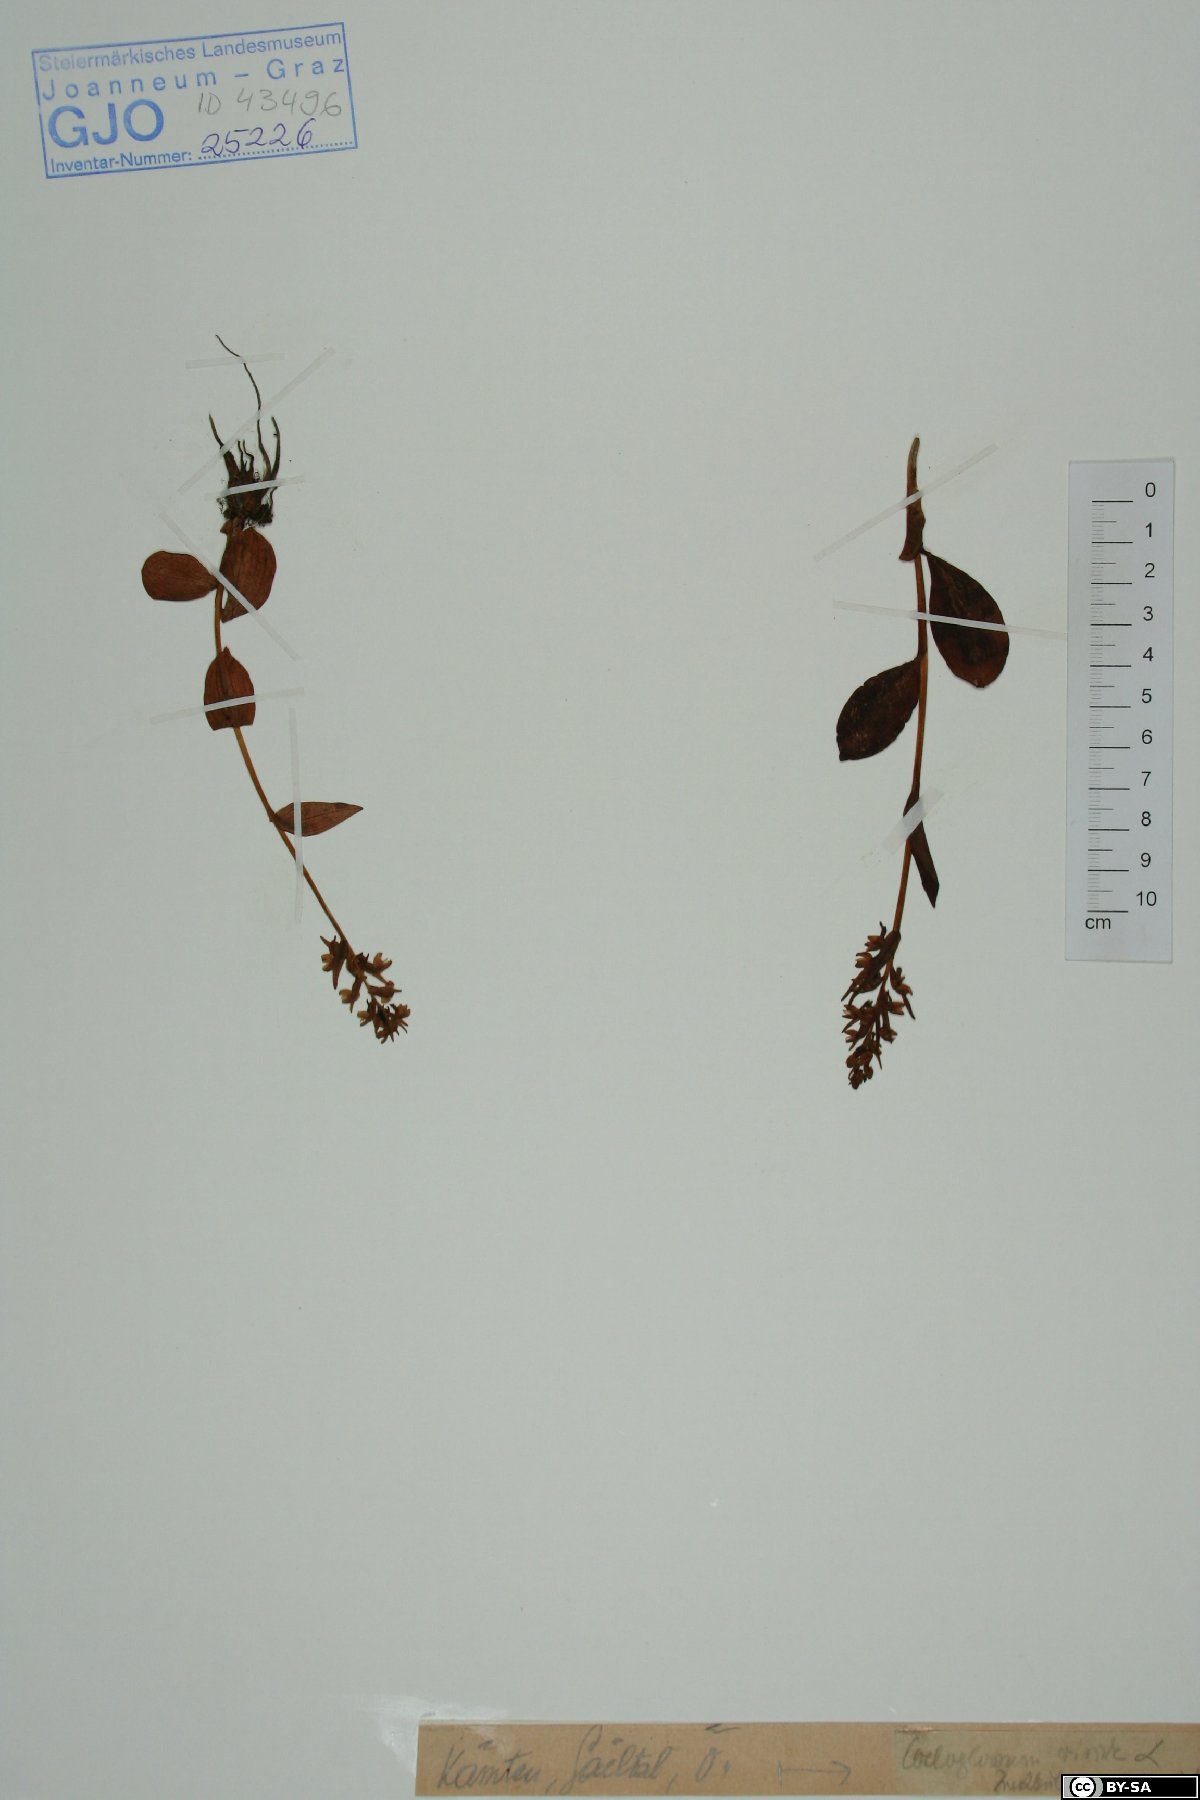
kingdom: Plantae
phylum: Tracheophyta
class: Liliopsida
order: Asparagales
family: Orchidaceae
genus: Dactylorhiza
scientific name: Dactylorhiza viridis
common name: Longbract frog orchid
